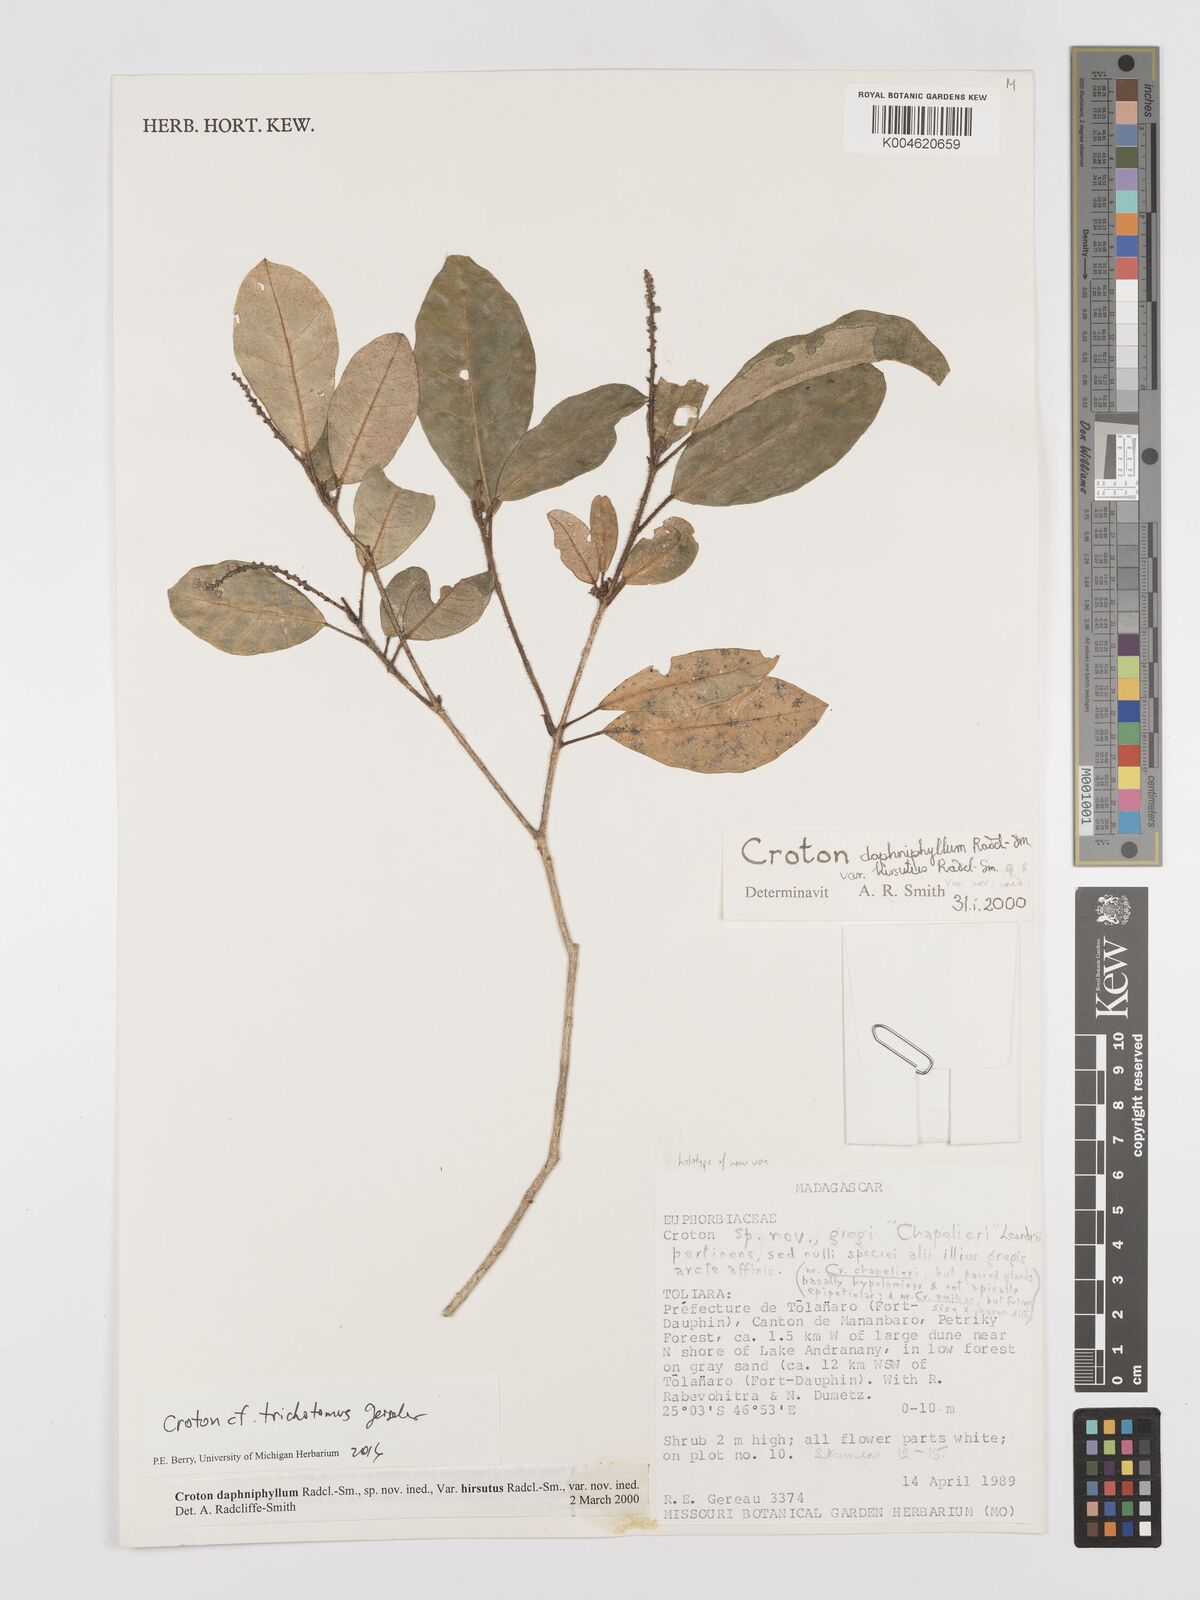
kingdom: Plantae
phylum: Tracheophyta
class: Magnoliopsida
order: Malpighiales
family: Euphorbiaceae
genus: Croton
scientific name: Croton trichotomus
